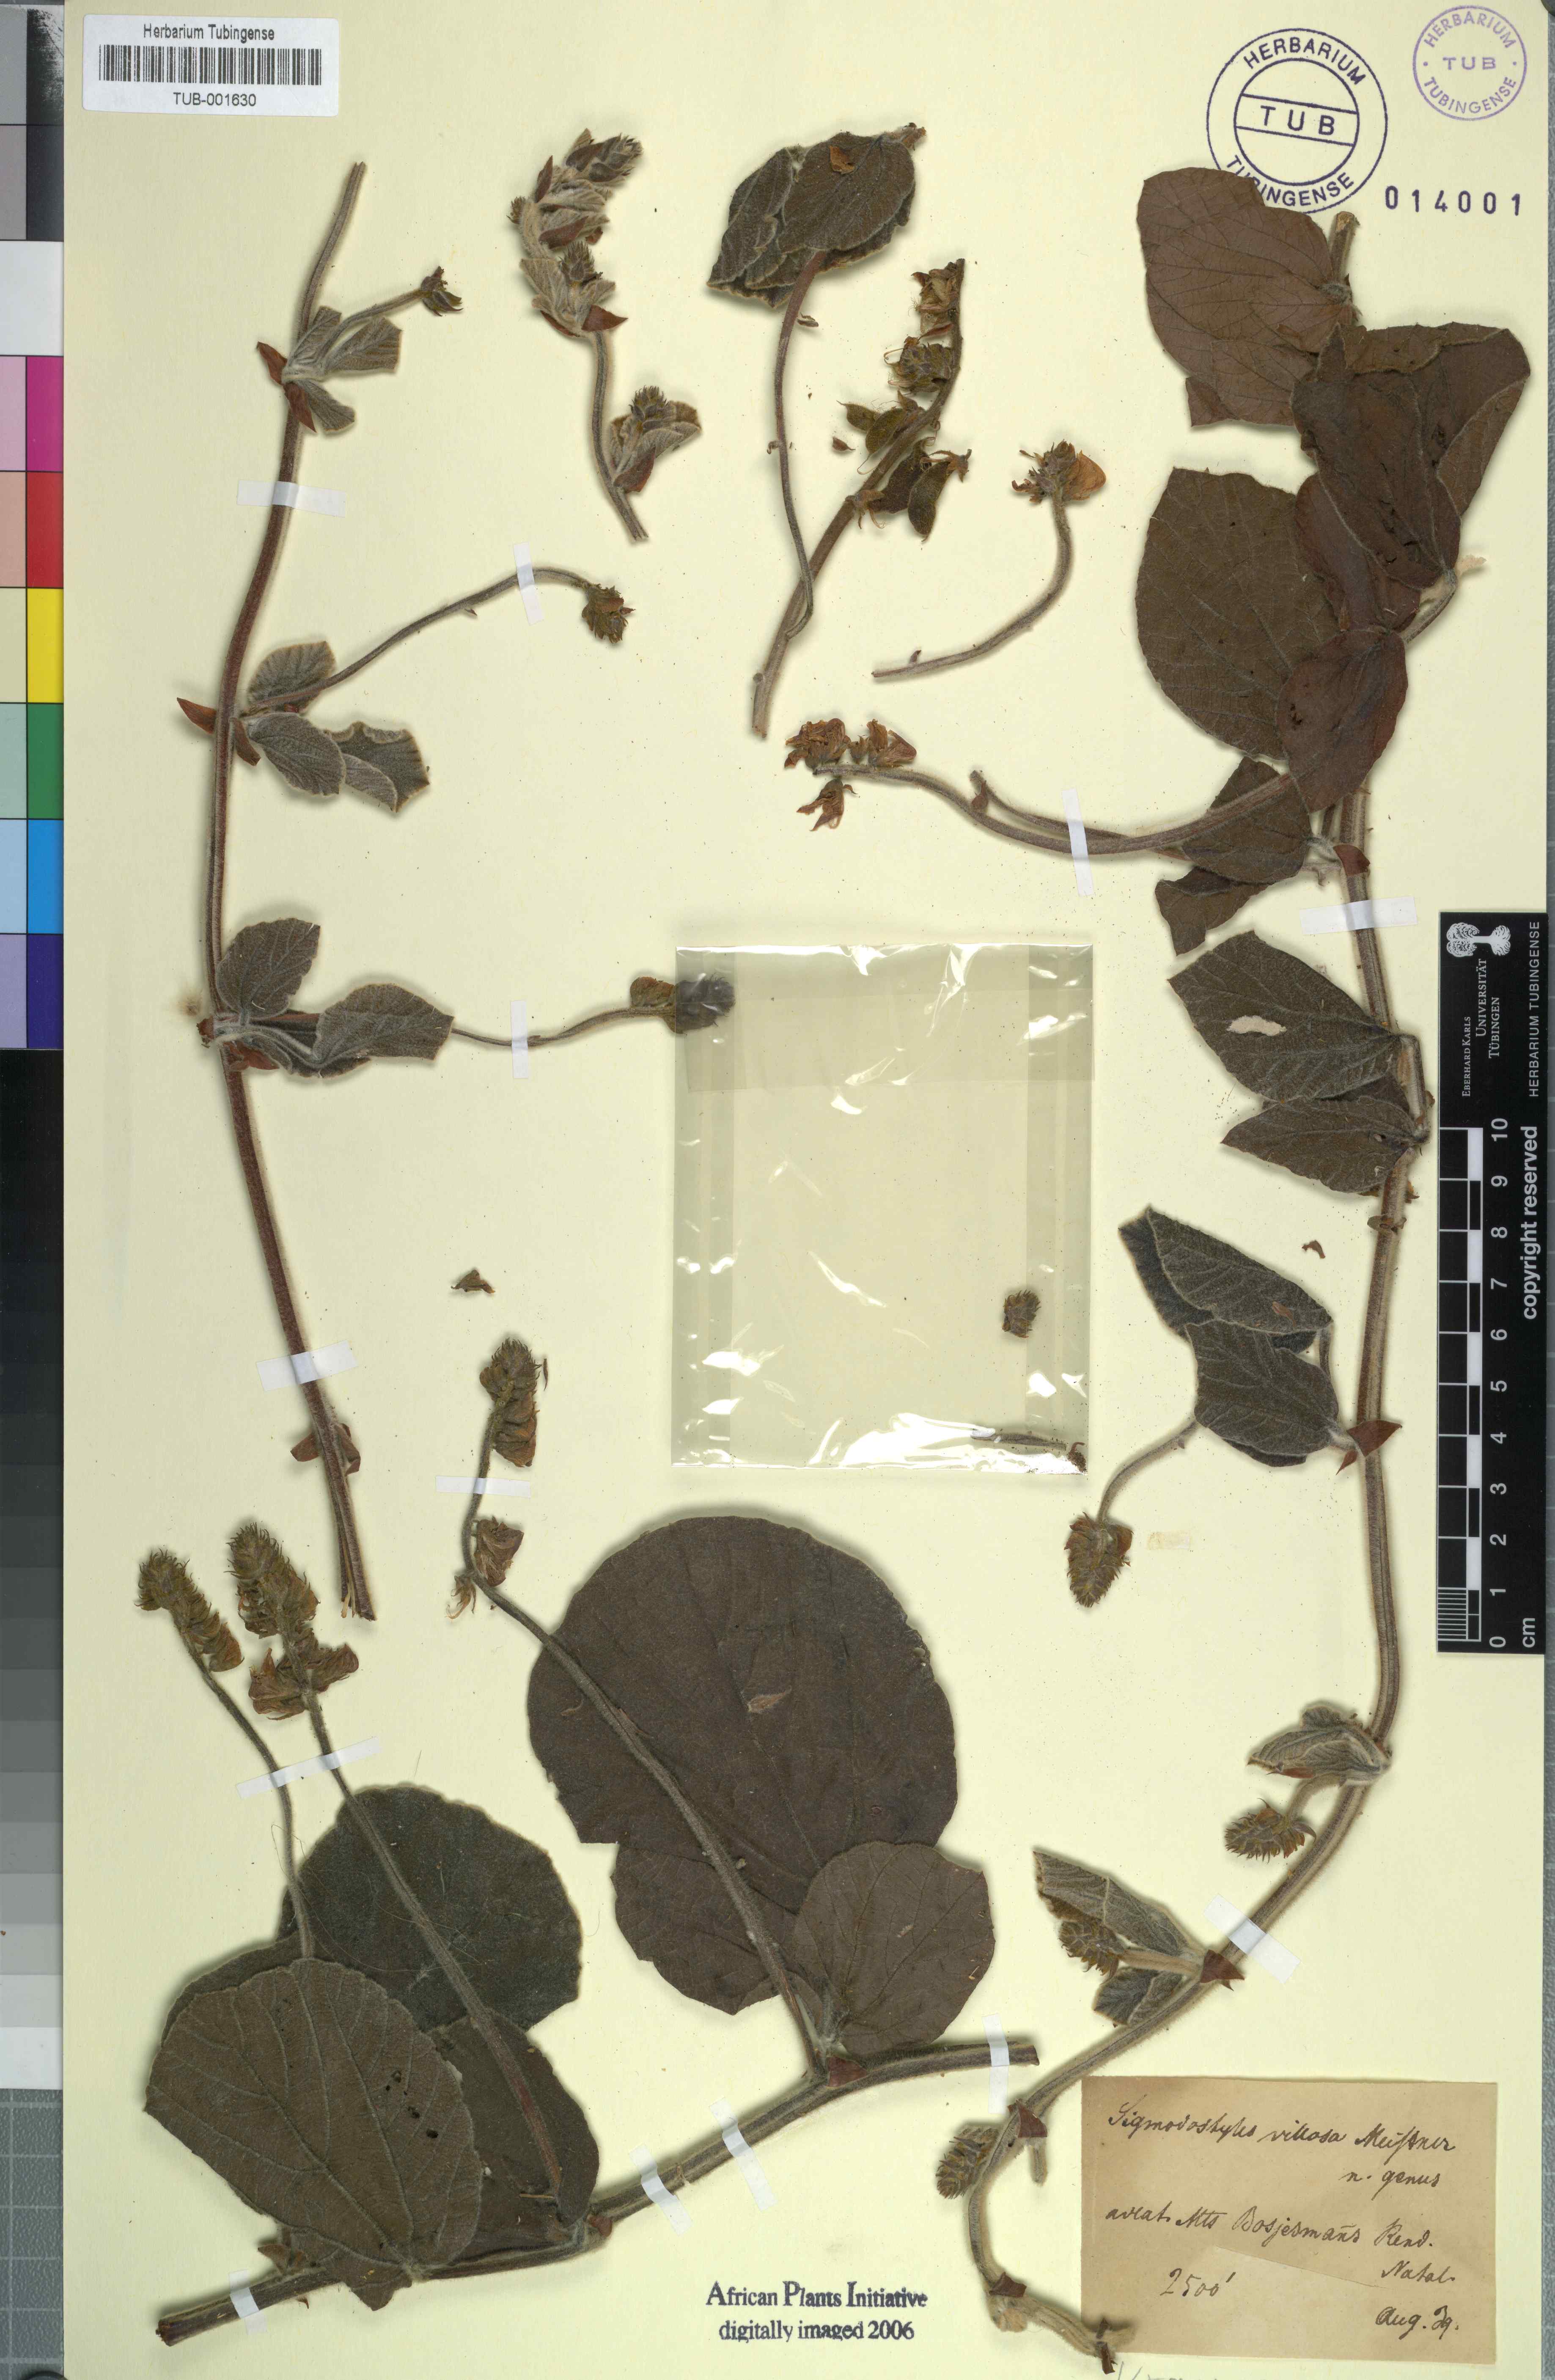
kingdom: Plantae
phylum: Tracheophyta
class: Magnoliopsida
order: Fabales
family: Fabaceae
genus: Rhynchosia
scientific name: Rhynchosia villosa
